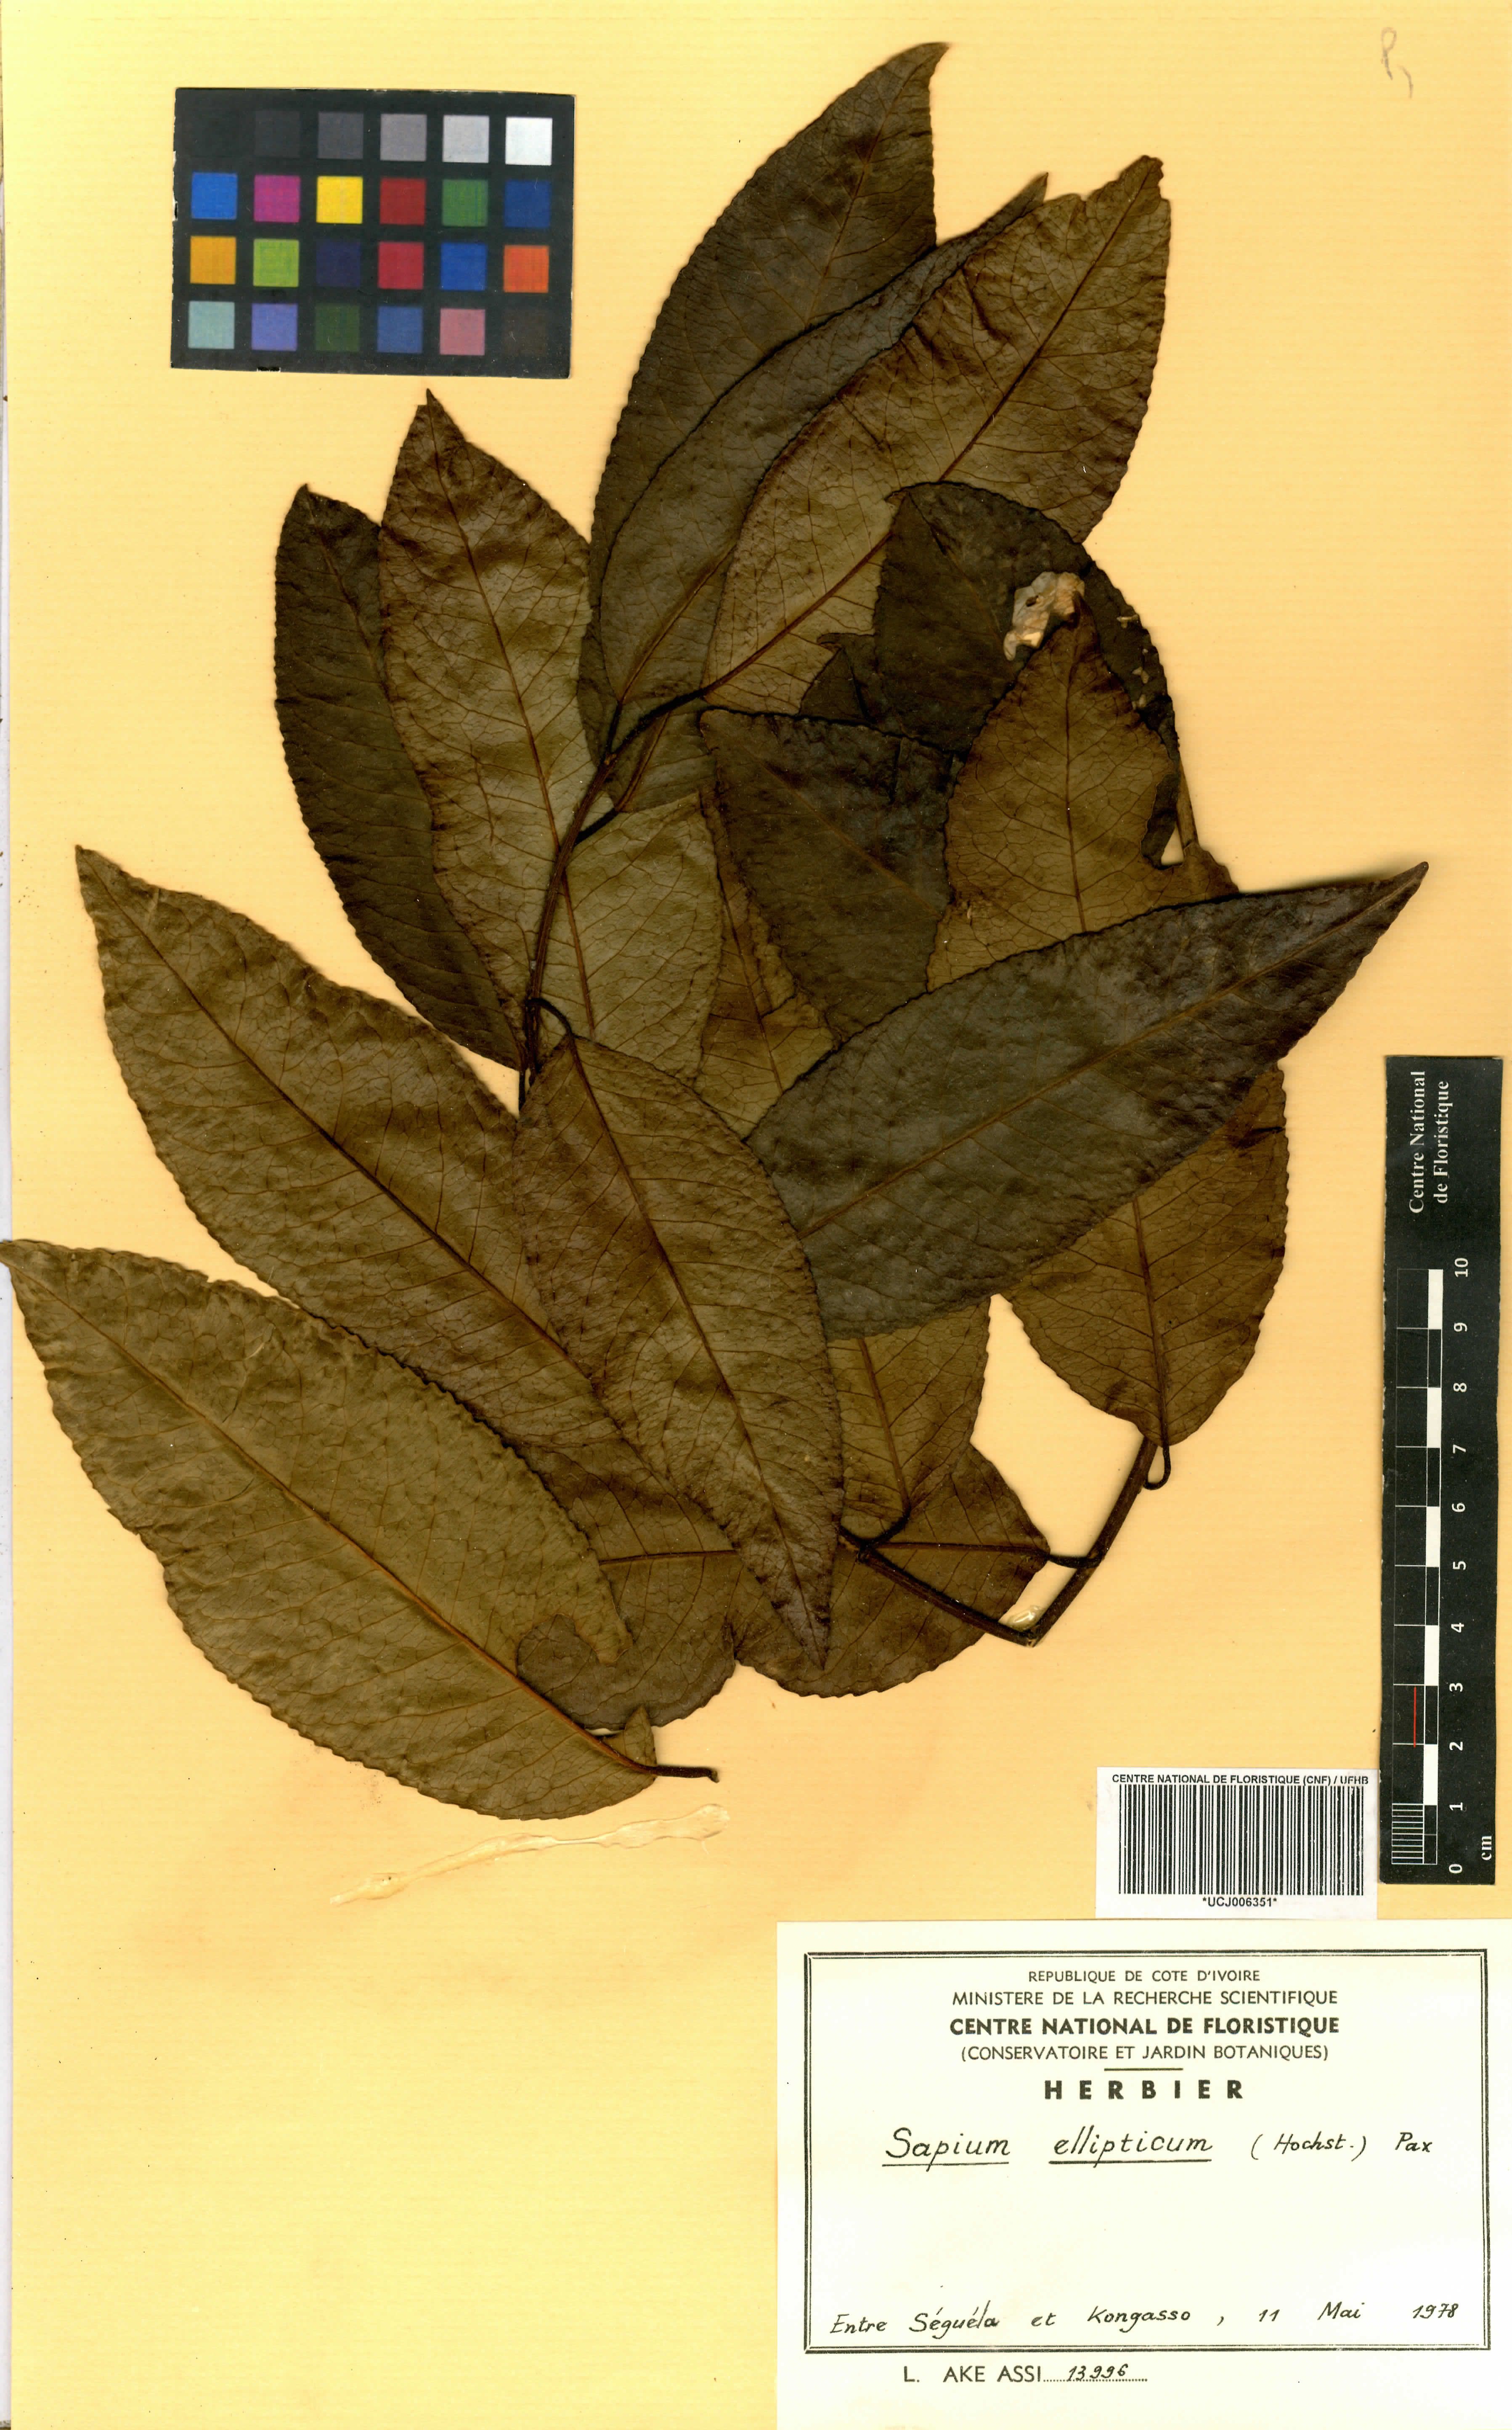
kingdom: Plantae
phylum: Tracheophyta
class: Magnoliopsida
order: Malpighiales
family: Euphorbiaceae
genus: Shirakiopsis
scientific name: Shirakiopsis elliptica
